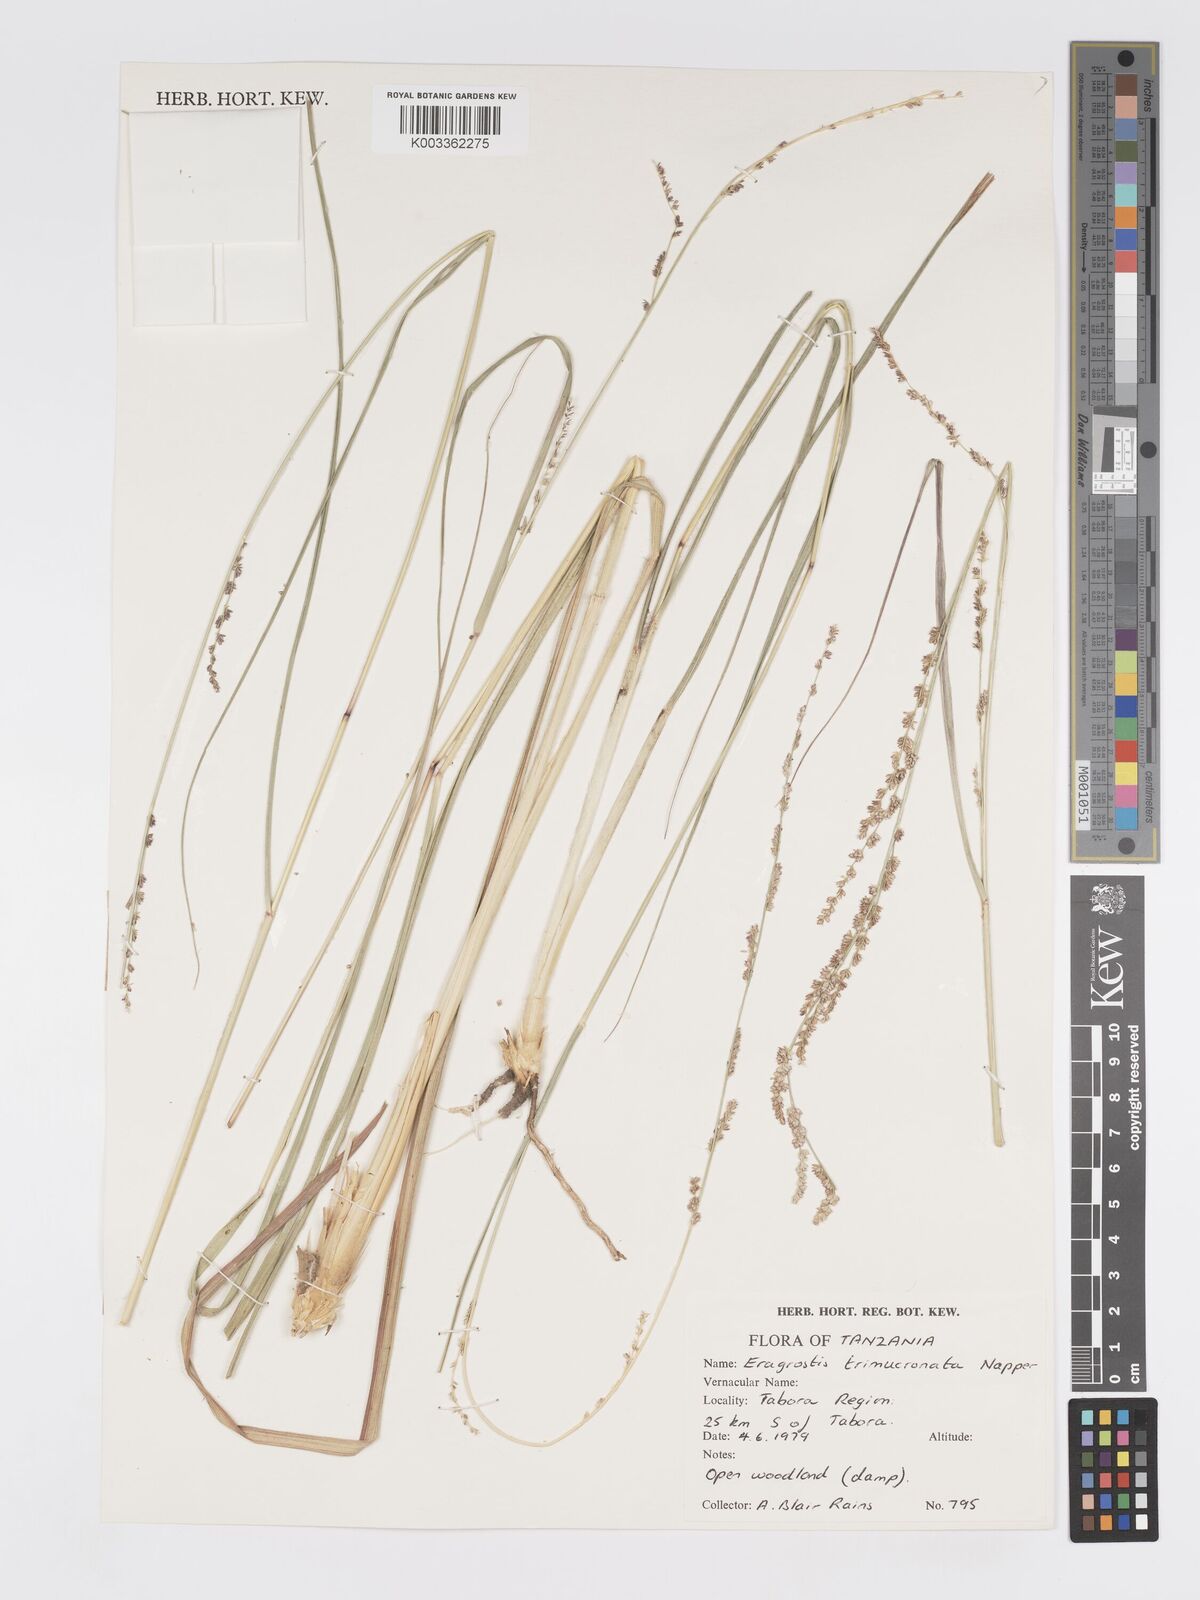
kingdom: Plantae
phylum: Tracheophyta
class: Liliopsida
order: Poales
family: Poaceae
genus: Eragrostis
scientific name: Eragrostis castellaneana
